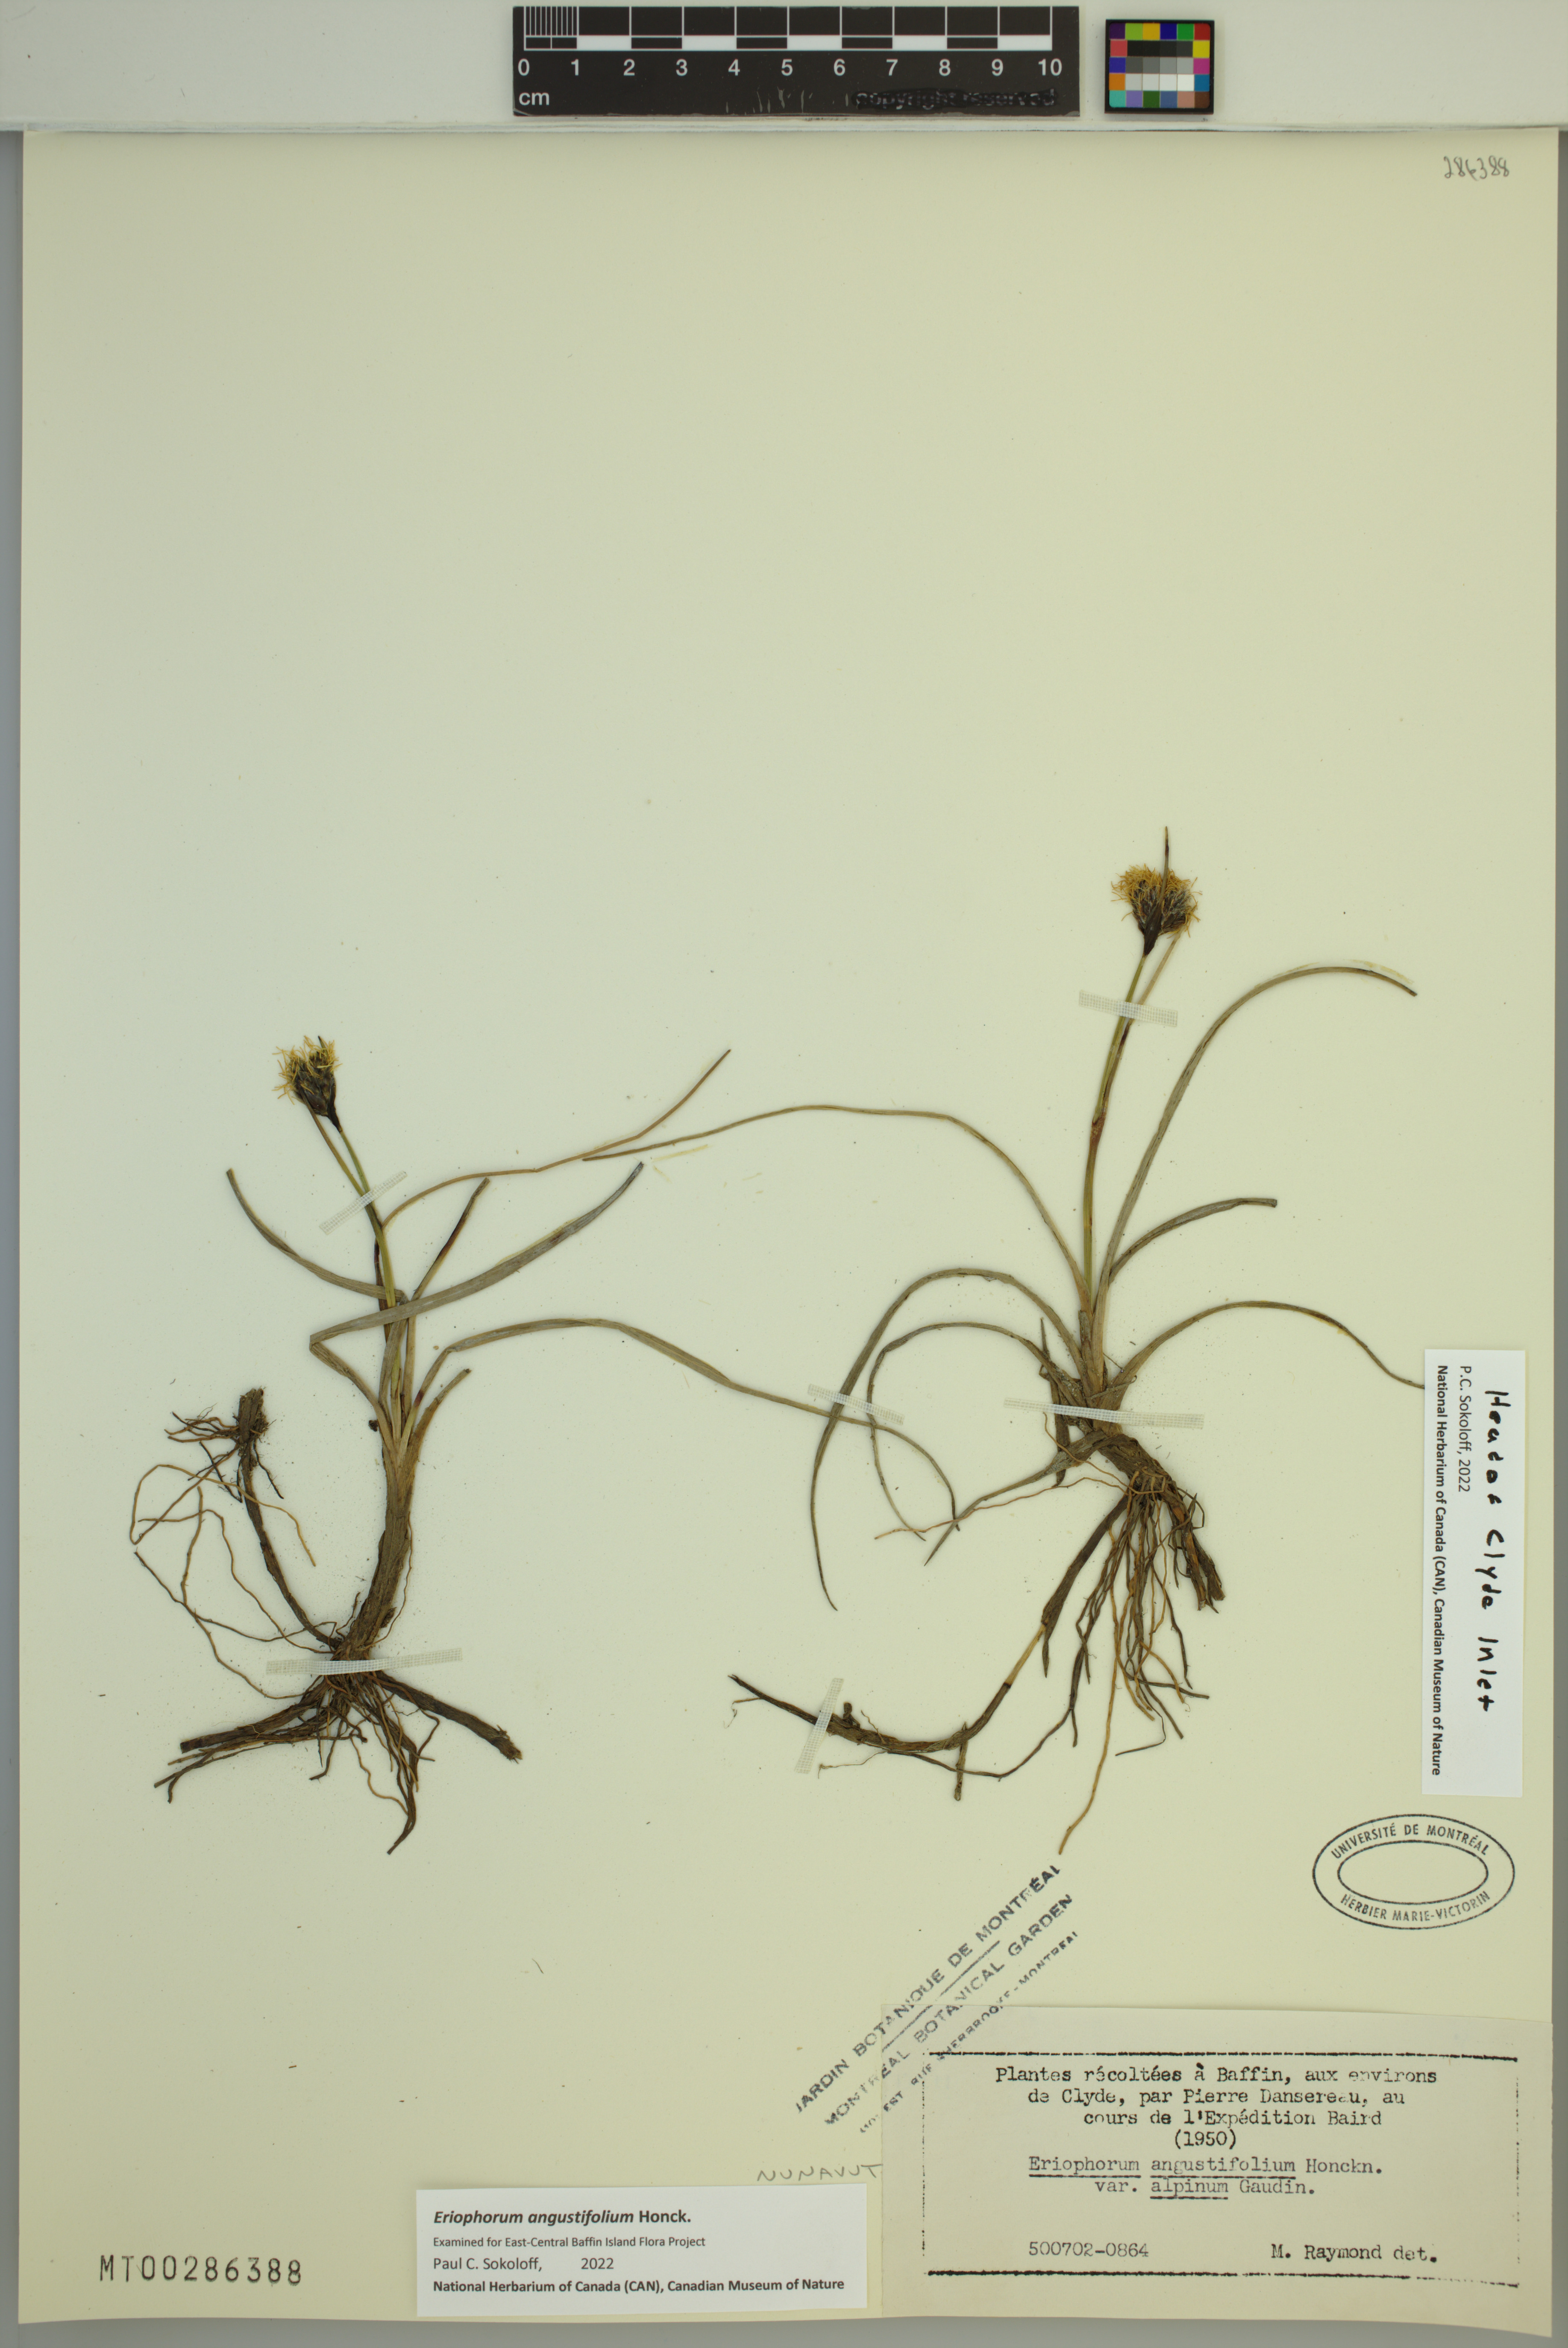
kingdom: Plantae
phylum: Tracheophyta
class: Liliopsida
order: Poales
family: Cyperaceae
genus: Eriophorum
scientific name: Eriophorum angustifolium
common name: Common cottongrass
